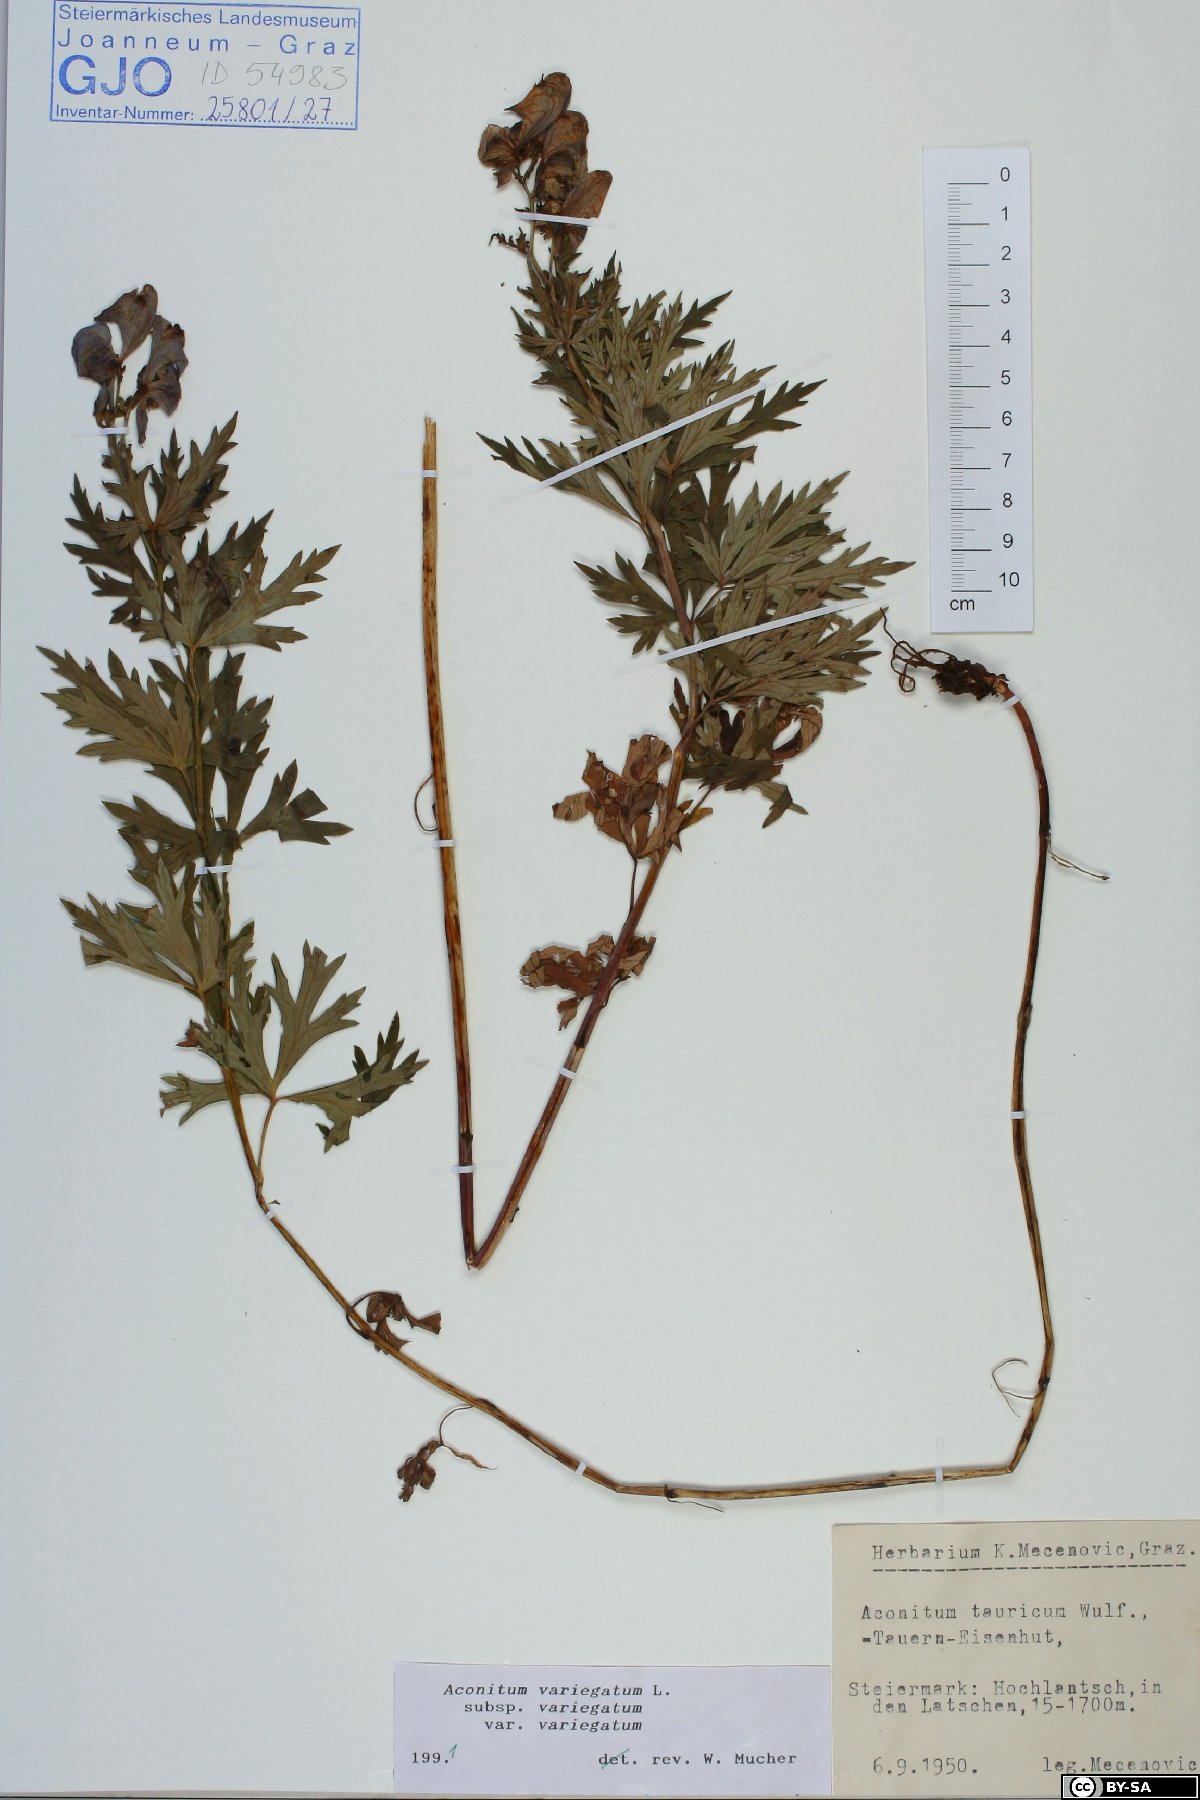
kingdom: Plantae
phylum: Tracheophyta
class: Magnoliopsida
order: Ranunculales
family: Ranunculaceae
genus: Aconitum
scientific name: Aconitum variegatum
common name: Manchurian monkshood
